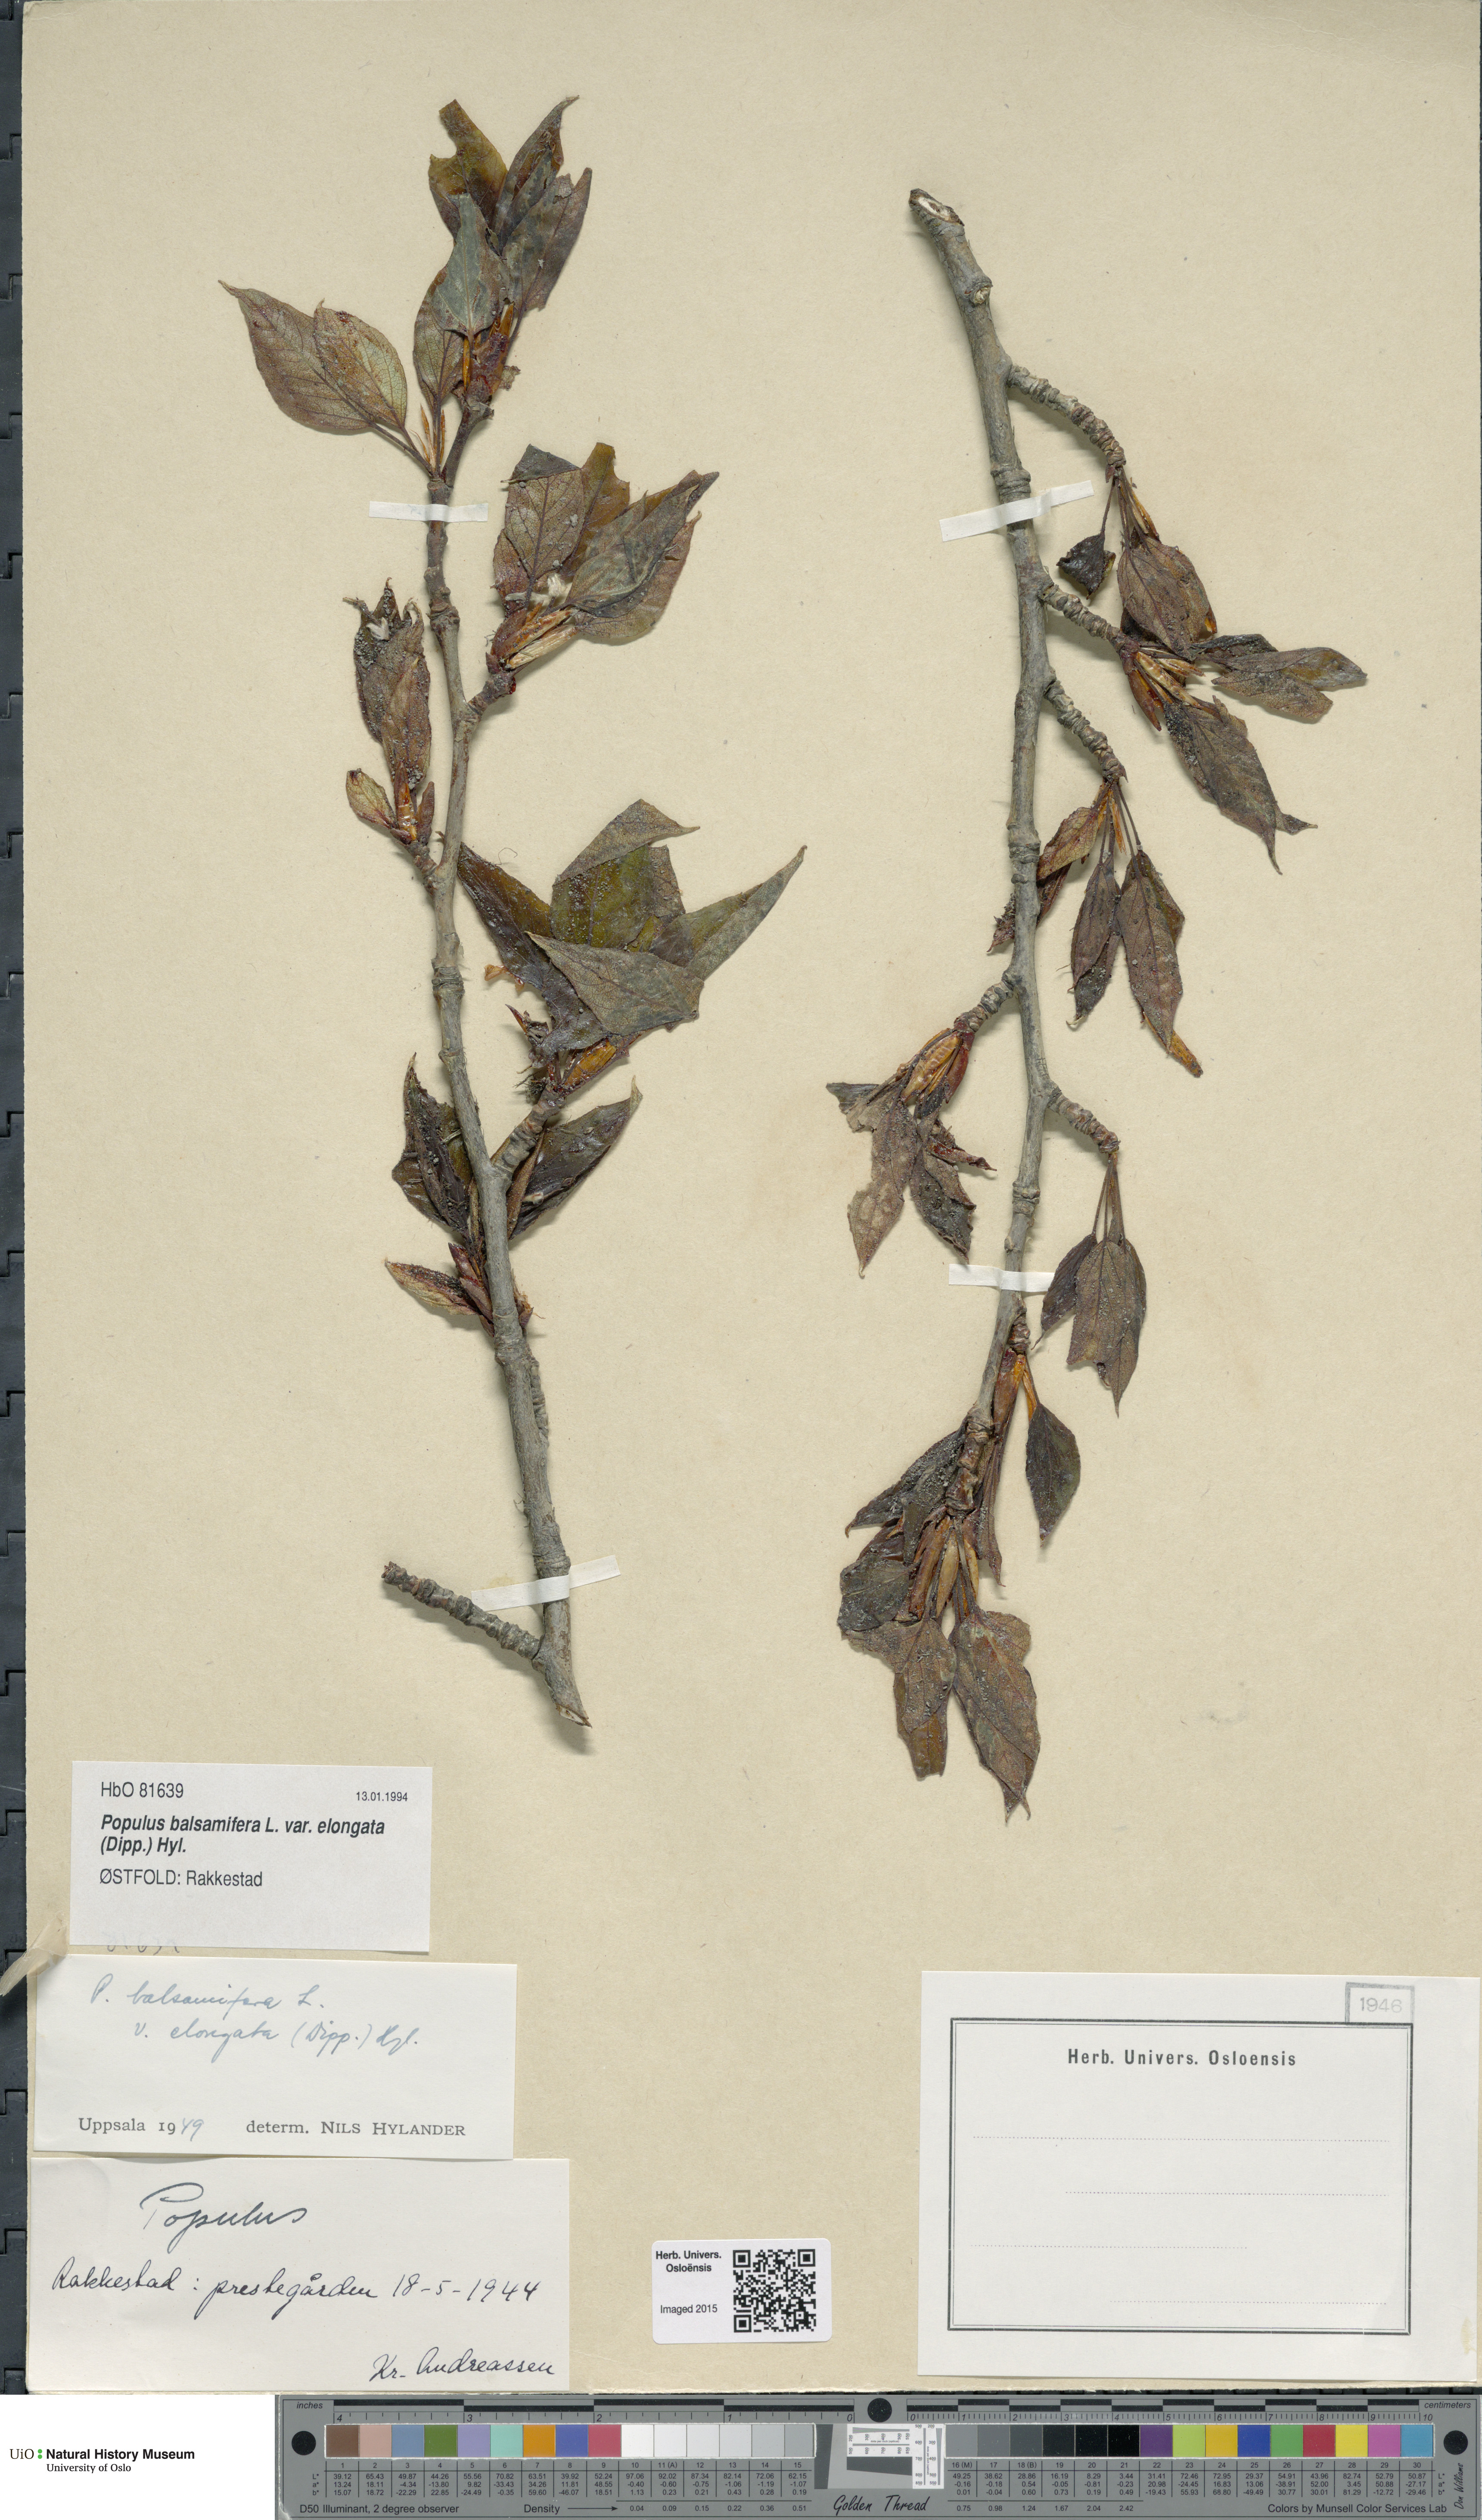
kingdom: Plantae
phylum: Tracheophyta
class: Magnoliopsida
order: Malpighiales
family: Salicaceae
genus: Populus
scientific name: Populus balsamifera
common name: Balsam poplar
